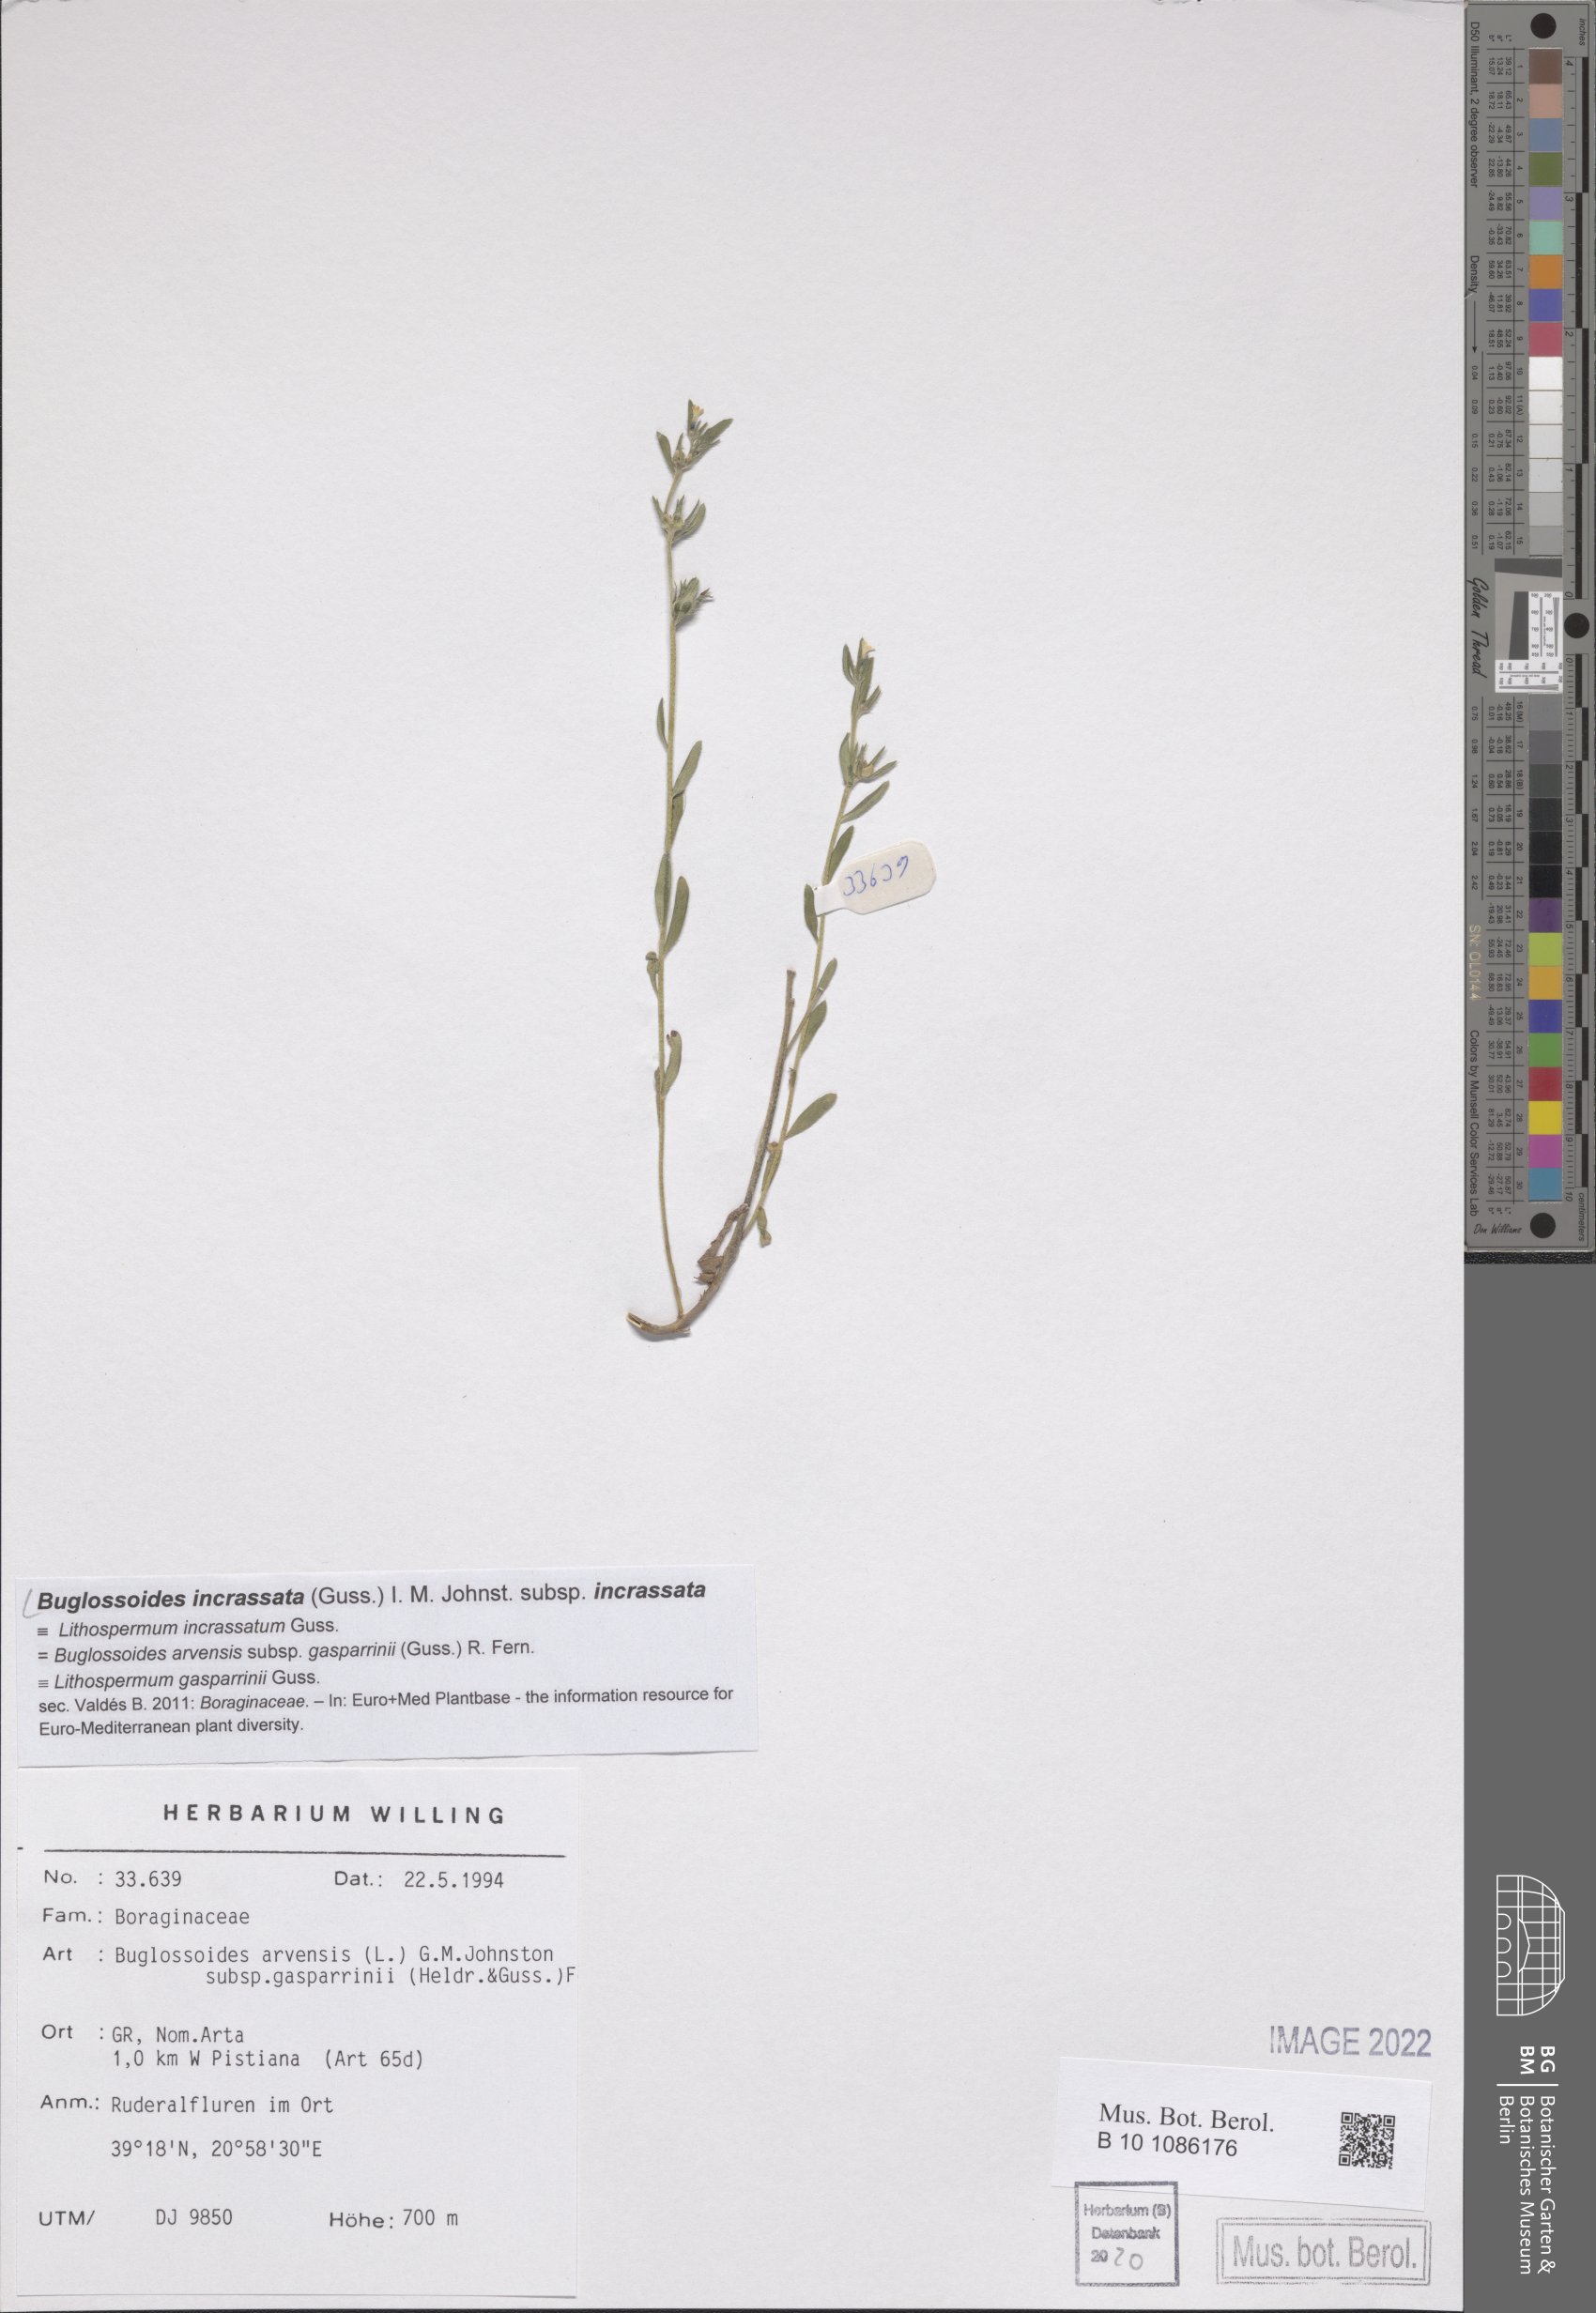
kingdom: Plantae
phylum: Tracheophyta
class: Magnoliopsida
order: Boraginales
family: Boraginaceae
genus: Buglossoides
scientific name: Buglossoides incrassata
